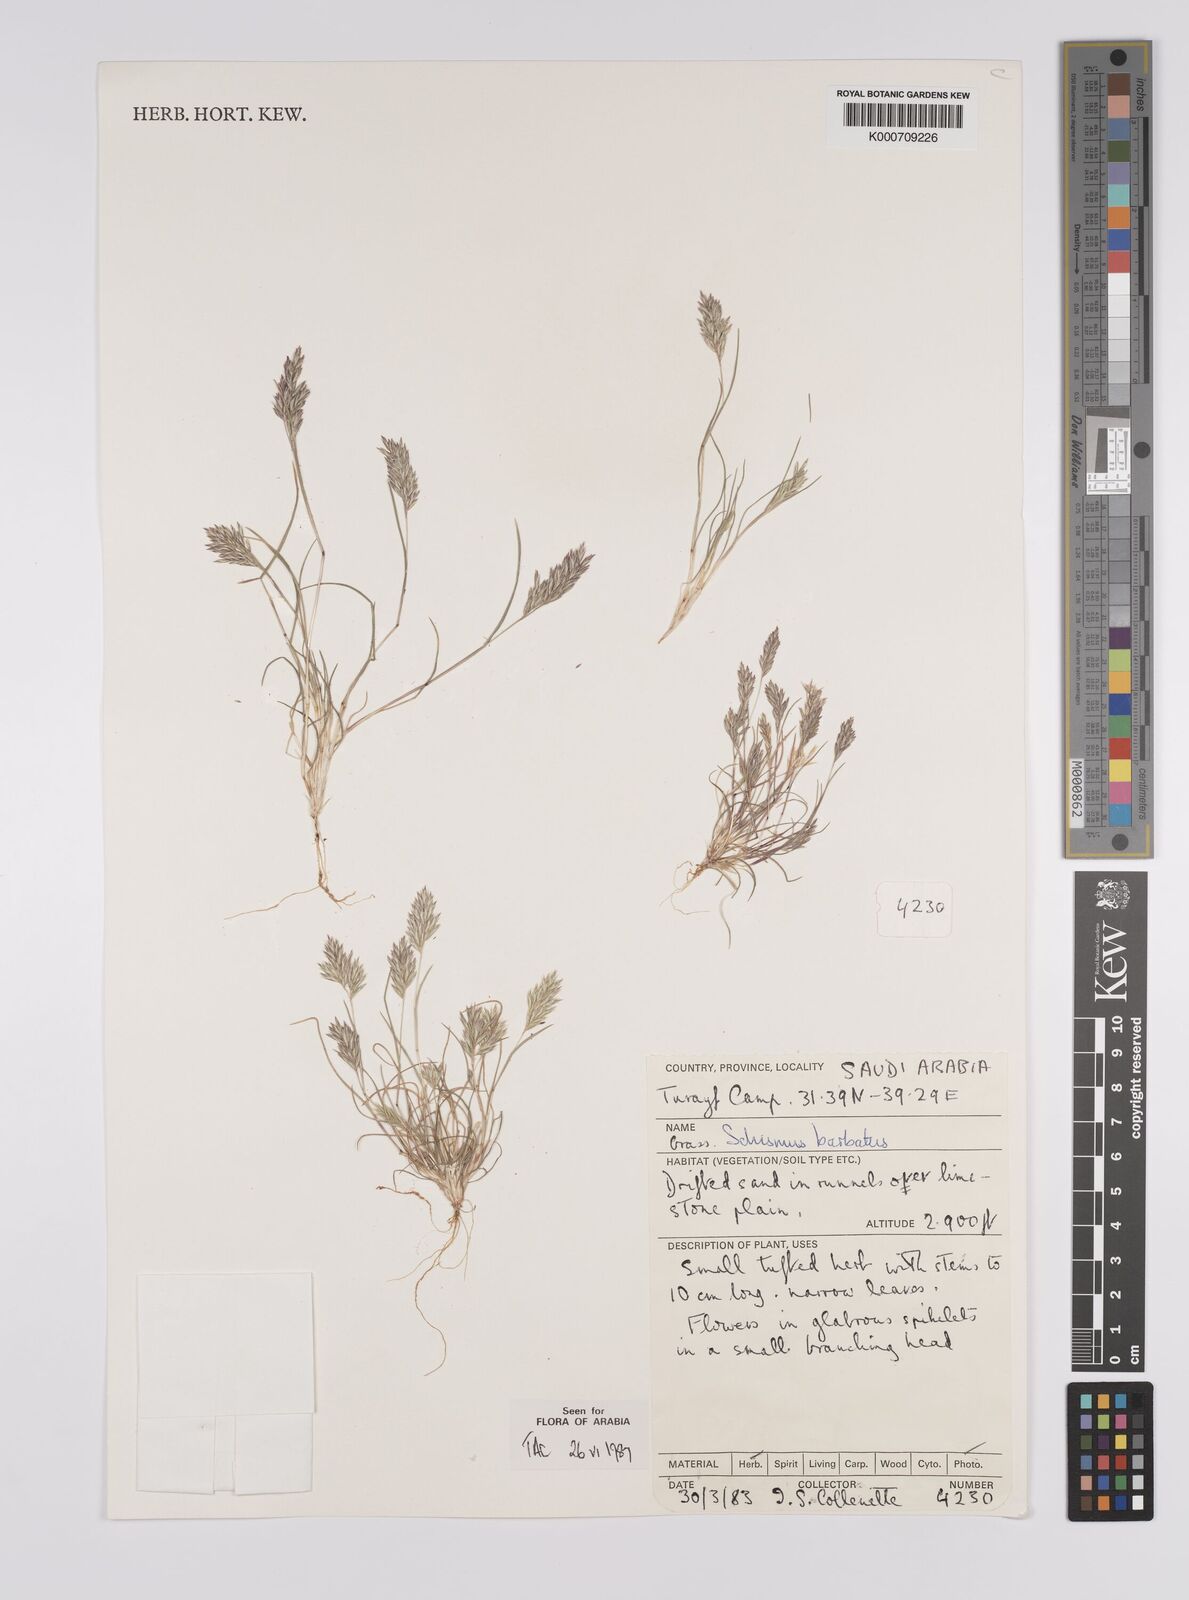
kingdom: Plantae
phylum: Tracheophyta
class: Liliopsida
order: Poales
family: Poaceae
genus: Schismus
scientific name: Schismus barbatus
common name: Kelch-grass
